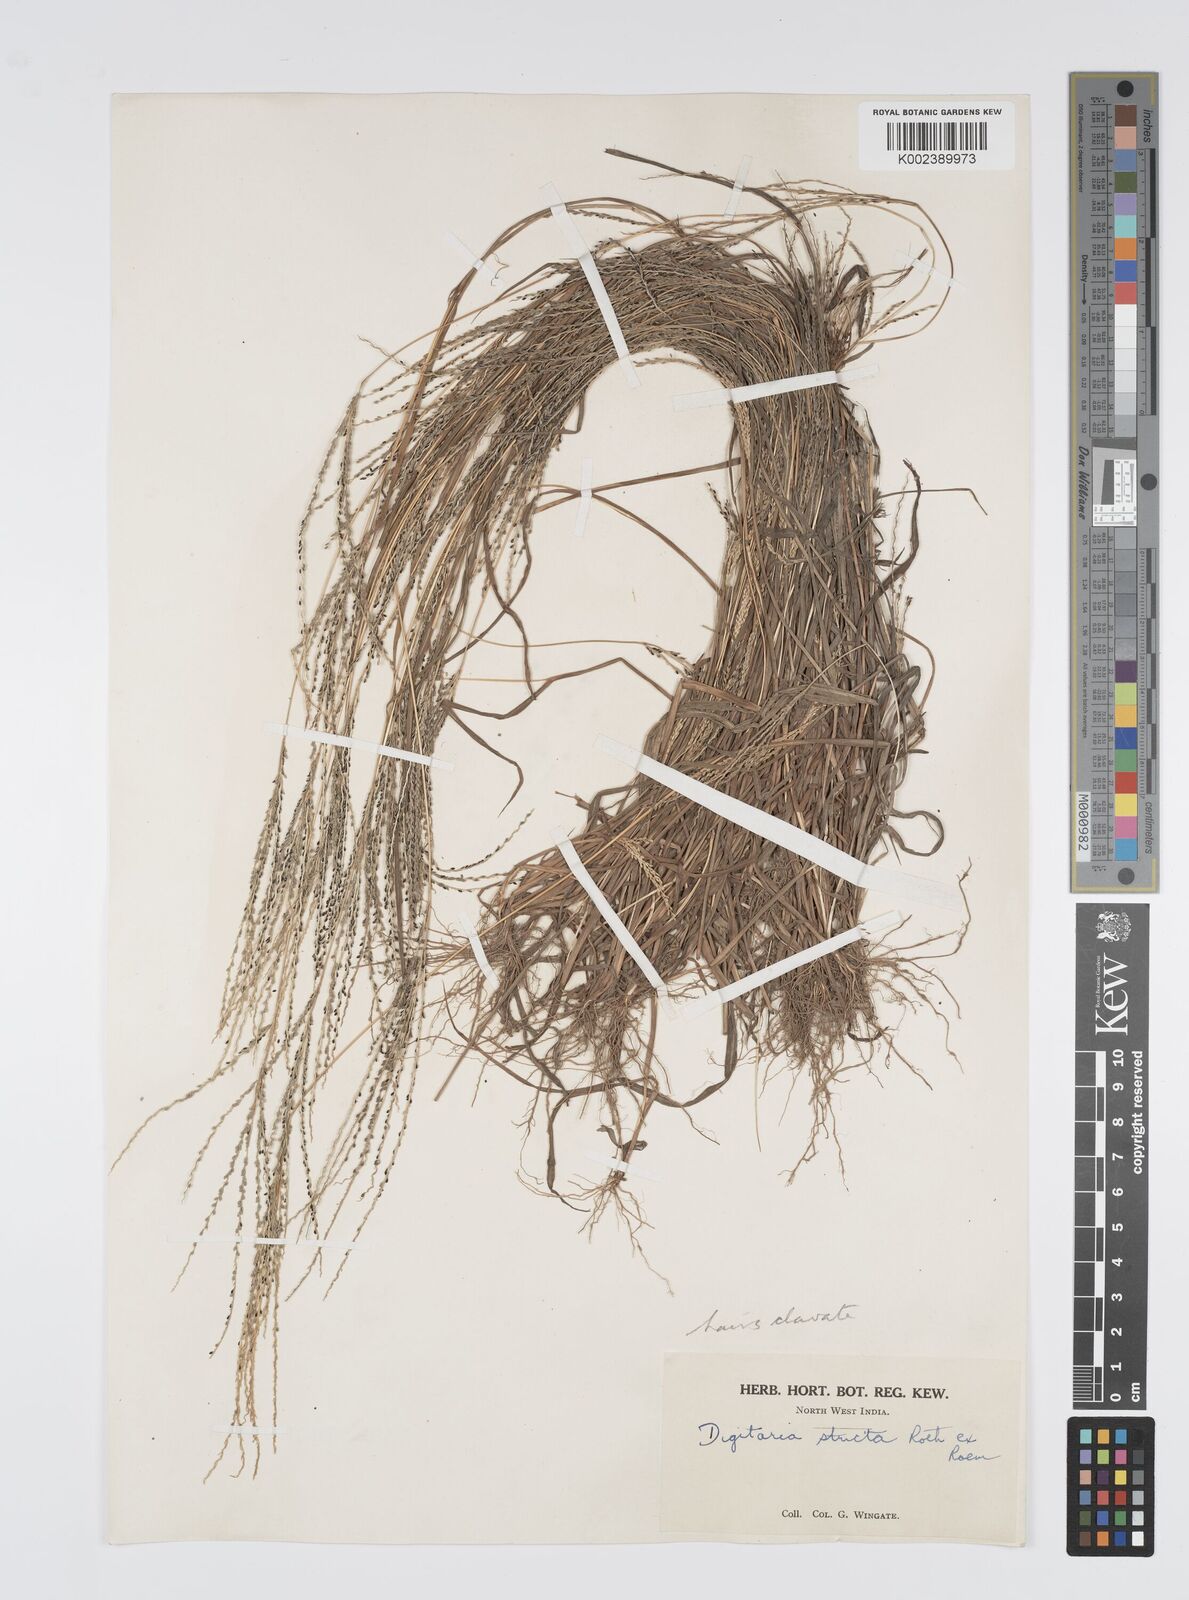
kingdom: Plantae
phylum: Tracheophyta
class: Liliopsida
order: Poales
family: Poaceae
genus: Digitaria
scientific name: Digitaria stricta
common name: Crabgrass
